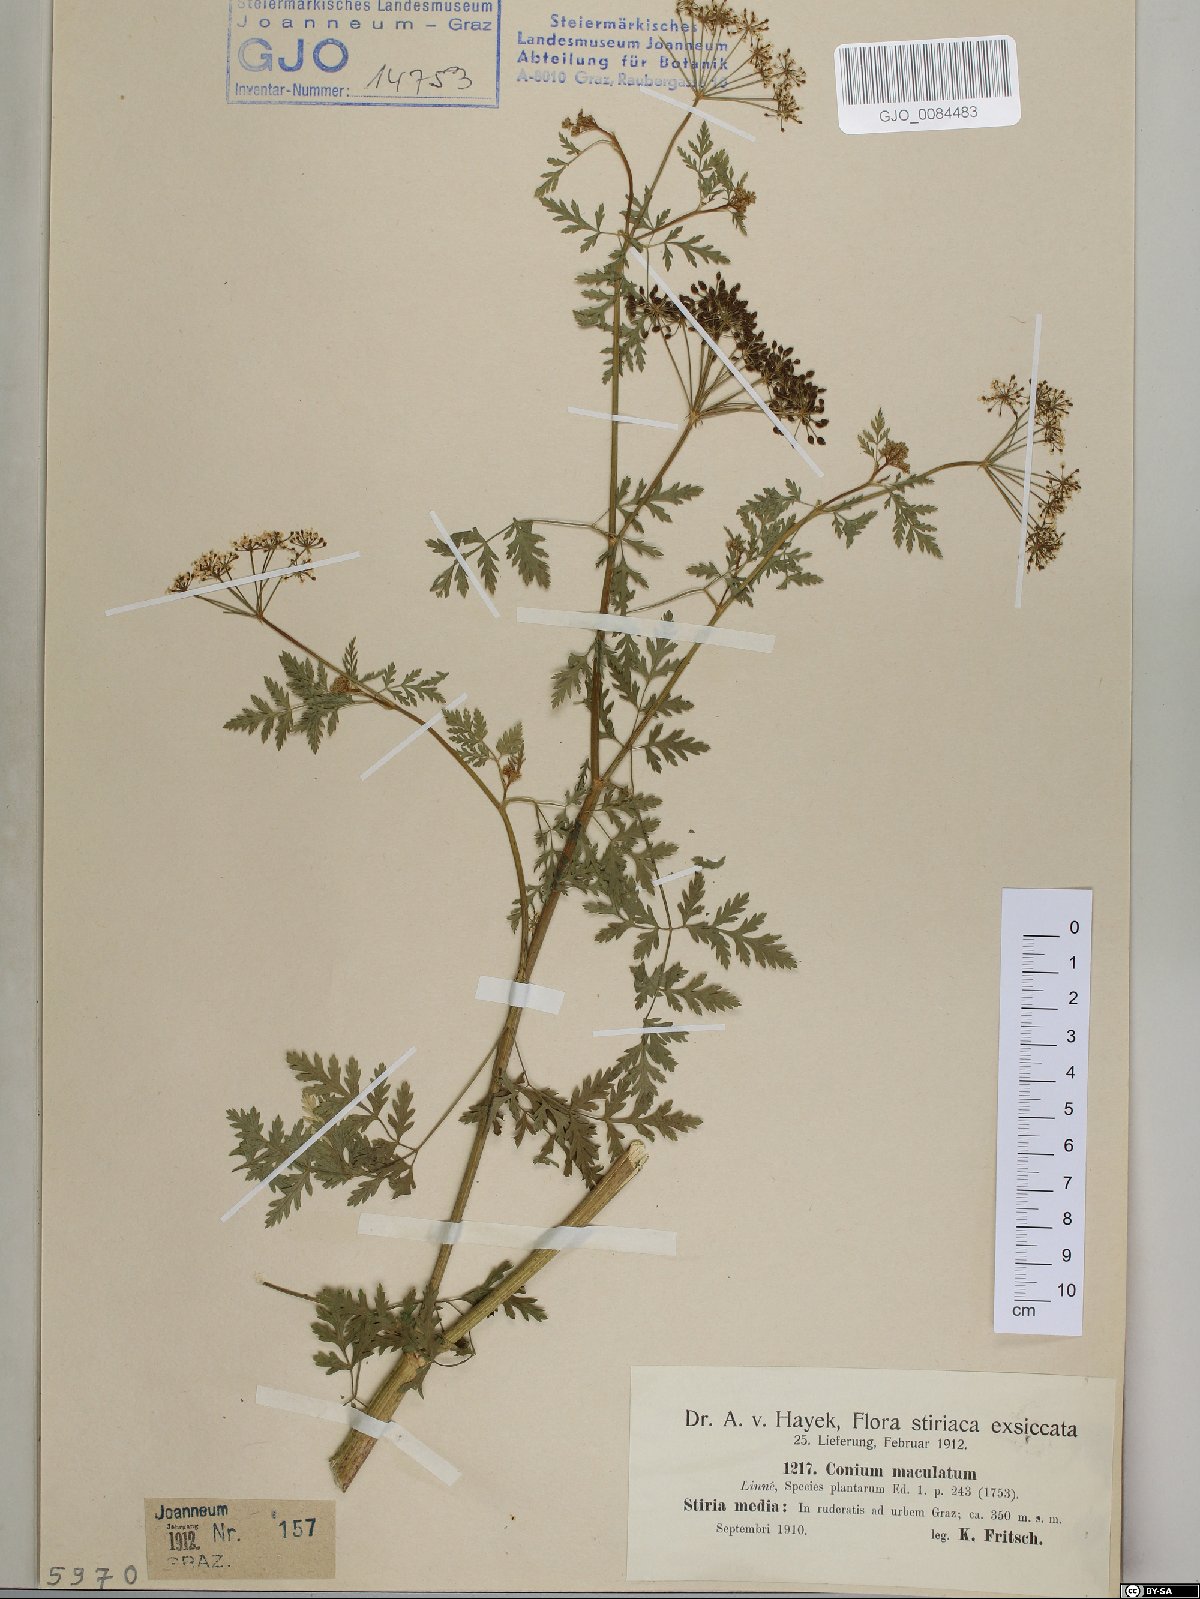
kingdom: Plantae
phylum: Tracheophyta
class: Magnoliopsida
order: Apiales
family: Apiaceae
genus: Conium
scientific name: Conium maculatum
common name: Hemlock
